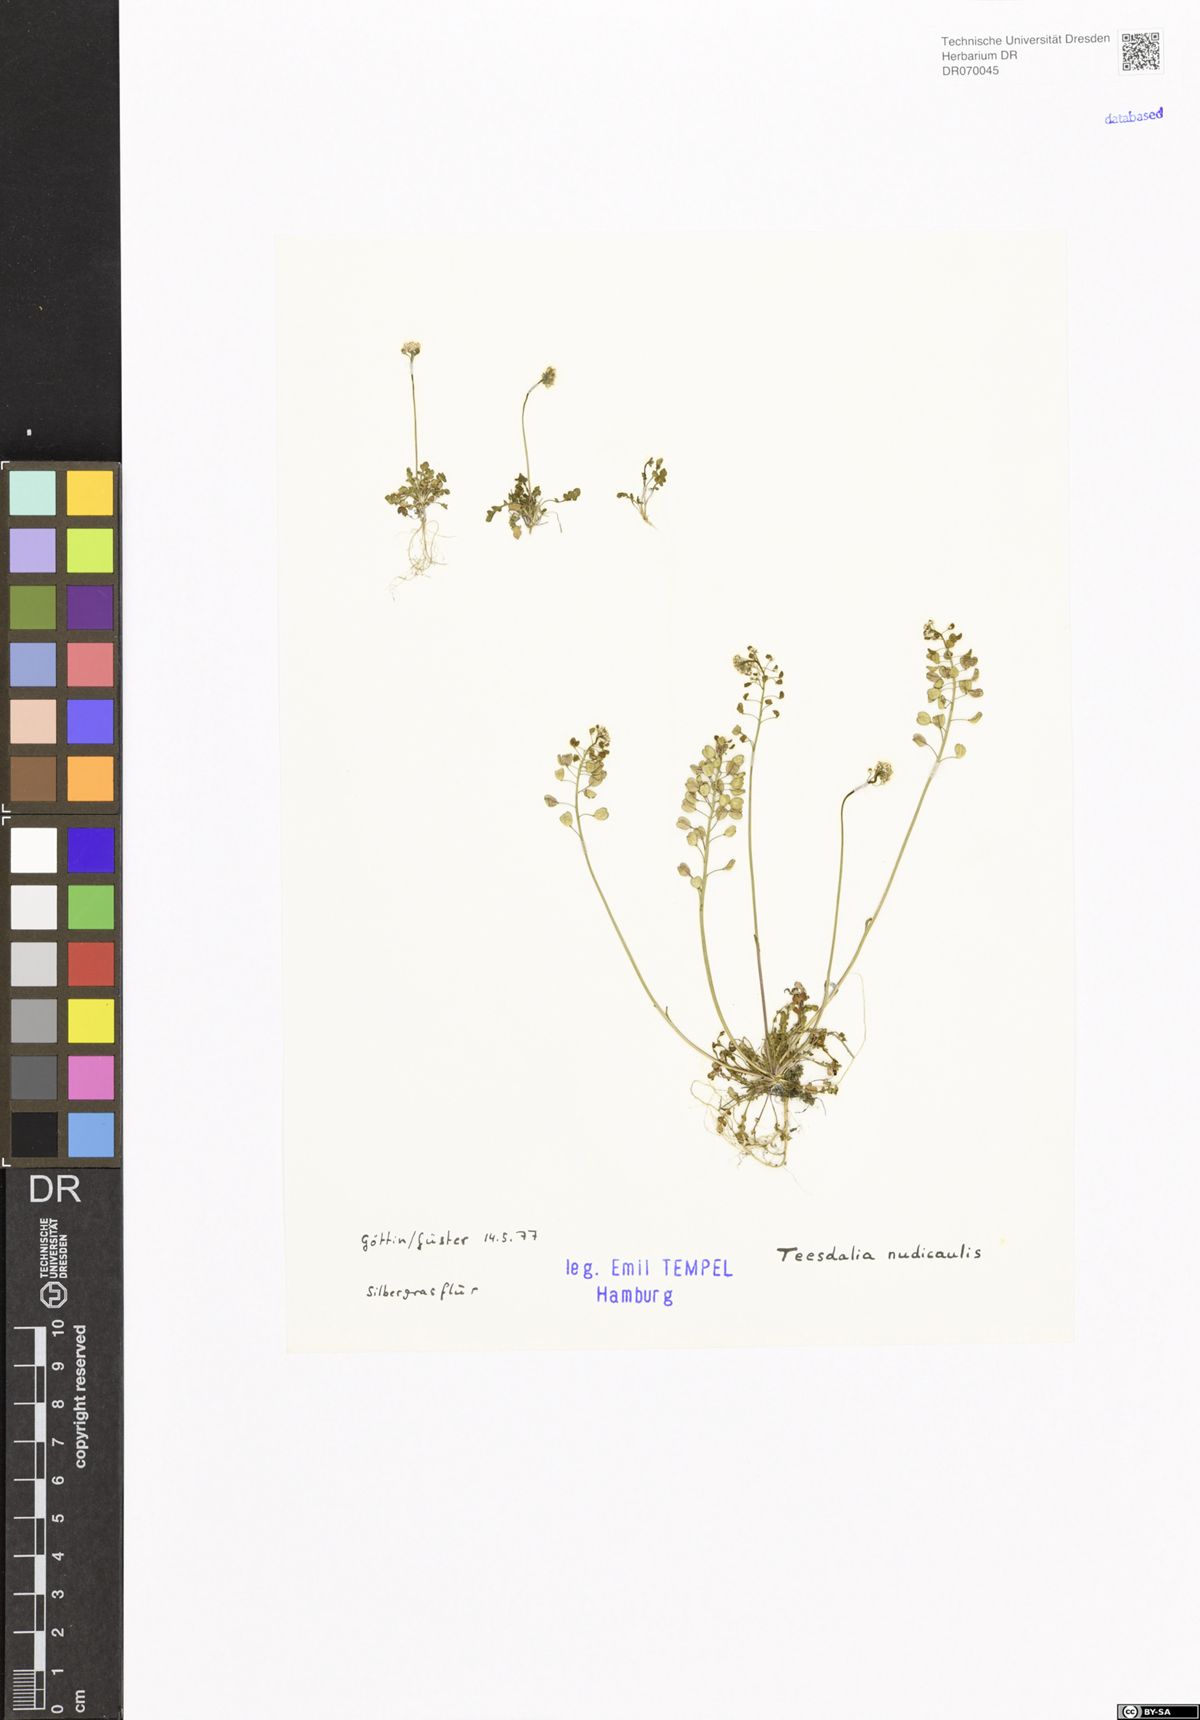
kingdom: Plantae
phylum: Tracheophyta
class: Magnoliopsida
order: Brassicales
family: Brassicaceae
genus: Teesdalia
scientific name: Teesdalia nudicaulis
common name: Shepherd's cress
